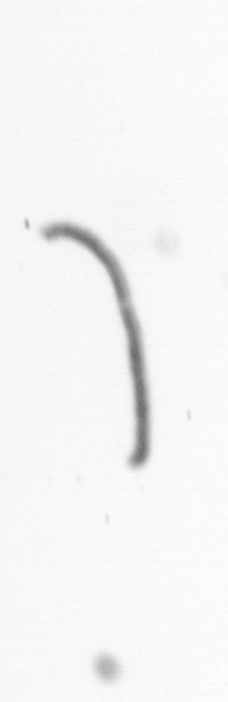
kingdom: Chromista
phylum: Ochrophyta
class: Bacillariophyceae
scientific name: Bacillariophyceae
